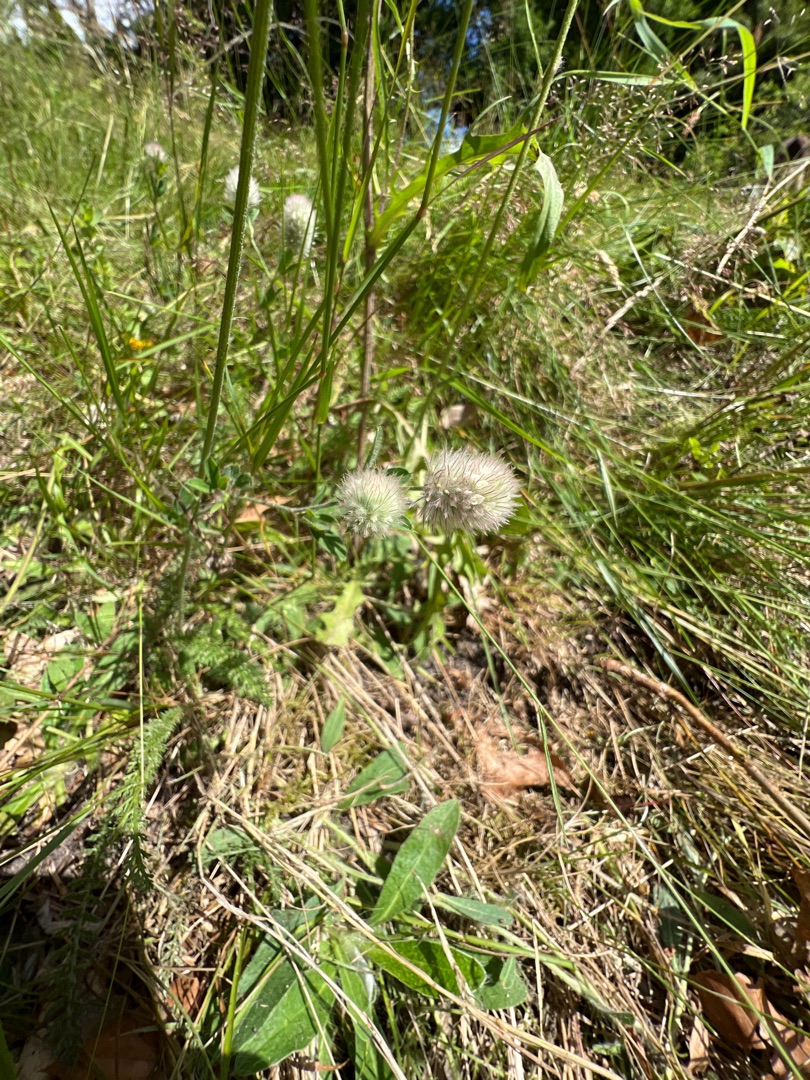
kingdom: Plantae
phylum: Tracheophyta
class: Magnoliopsida
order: Fabales
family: Fabaceae
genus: Trifolium
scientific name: Trifolium arvense
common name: Hare-kløver
